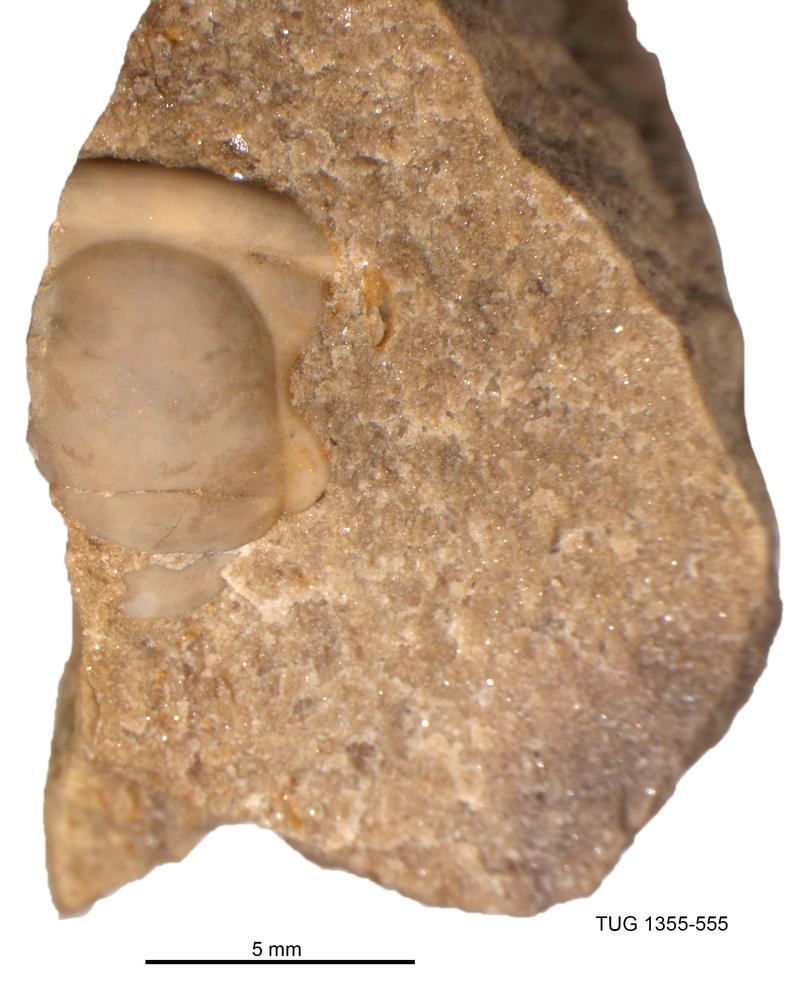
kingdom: Animalia
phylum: Arthropoda
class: Trilobita
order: Proetida
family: Proetidae
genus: Proetus
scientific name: Proetus
